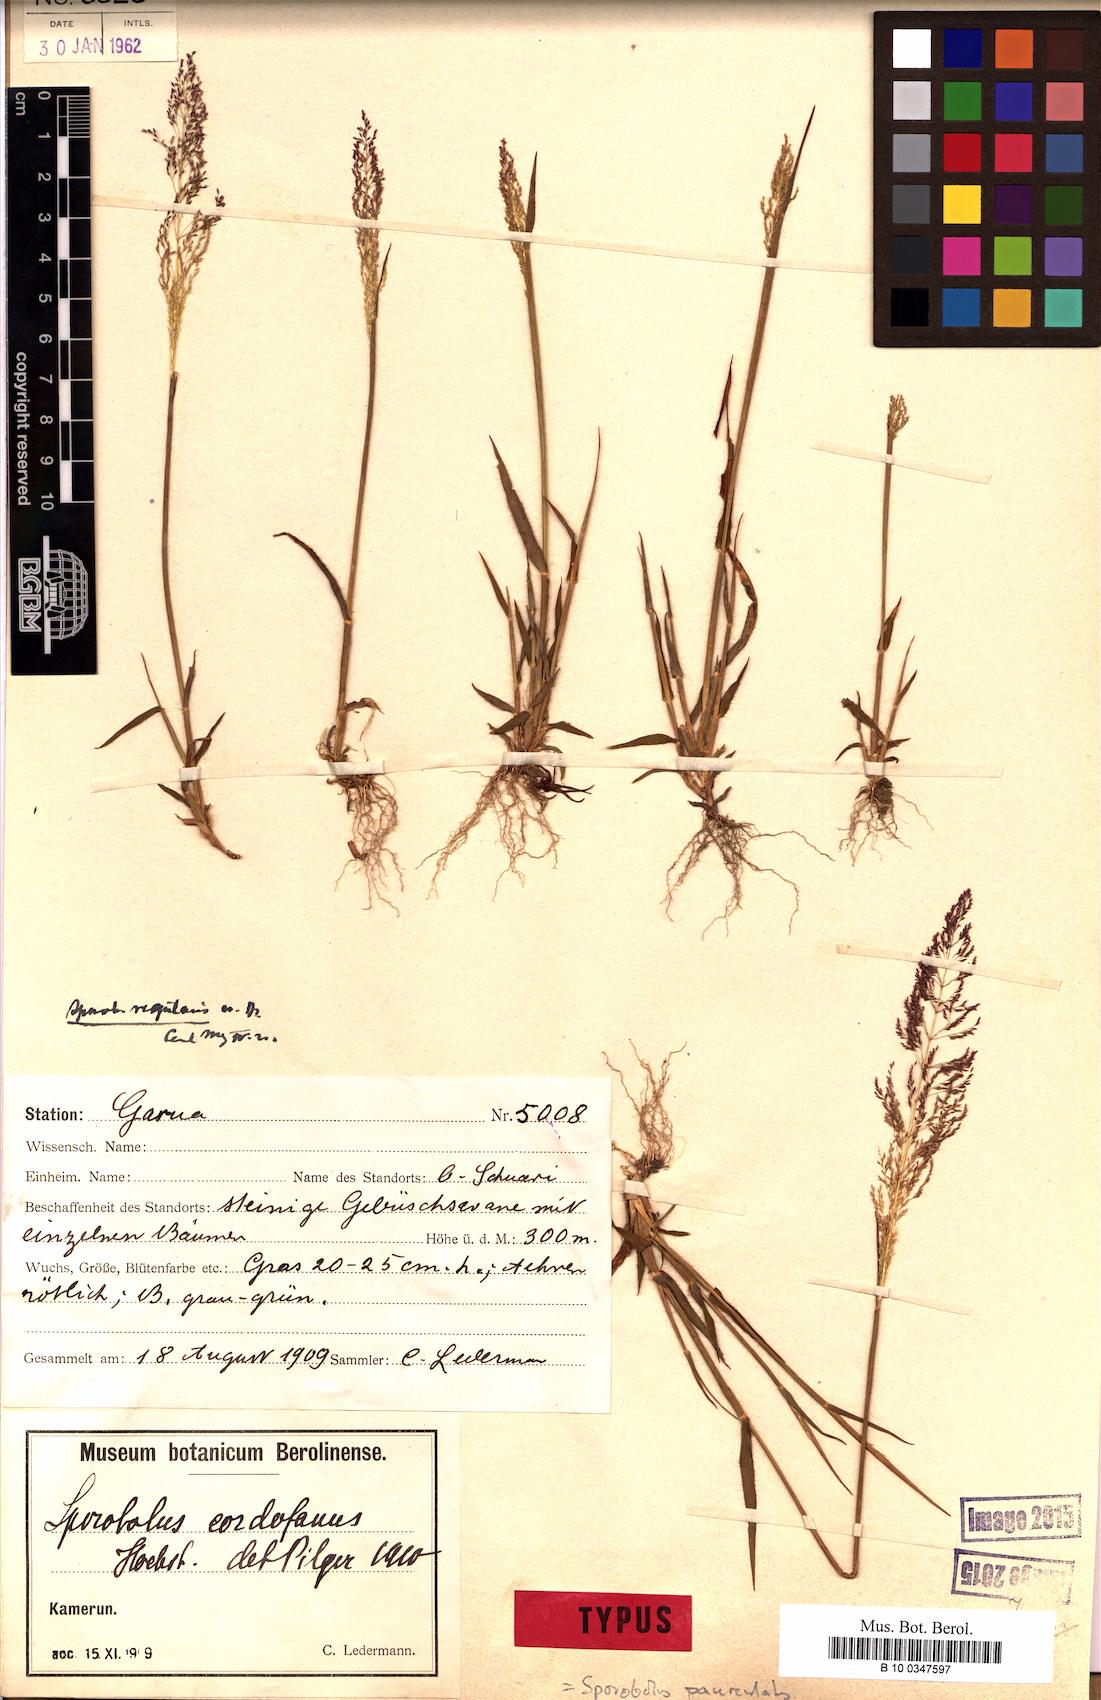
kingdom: Plantae
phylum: Tracheophyta
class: Liliopsida
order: Poales
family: Poaceae
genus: Sporobolus
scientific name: Sporobolus cordofanus
